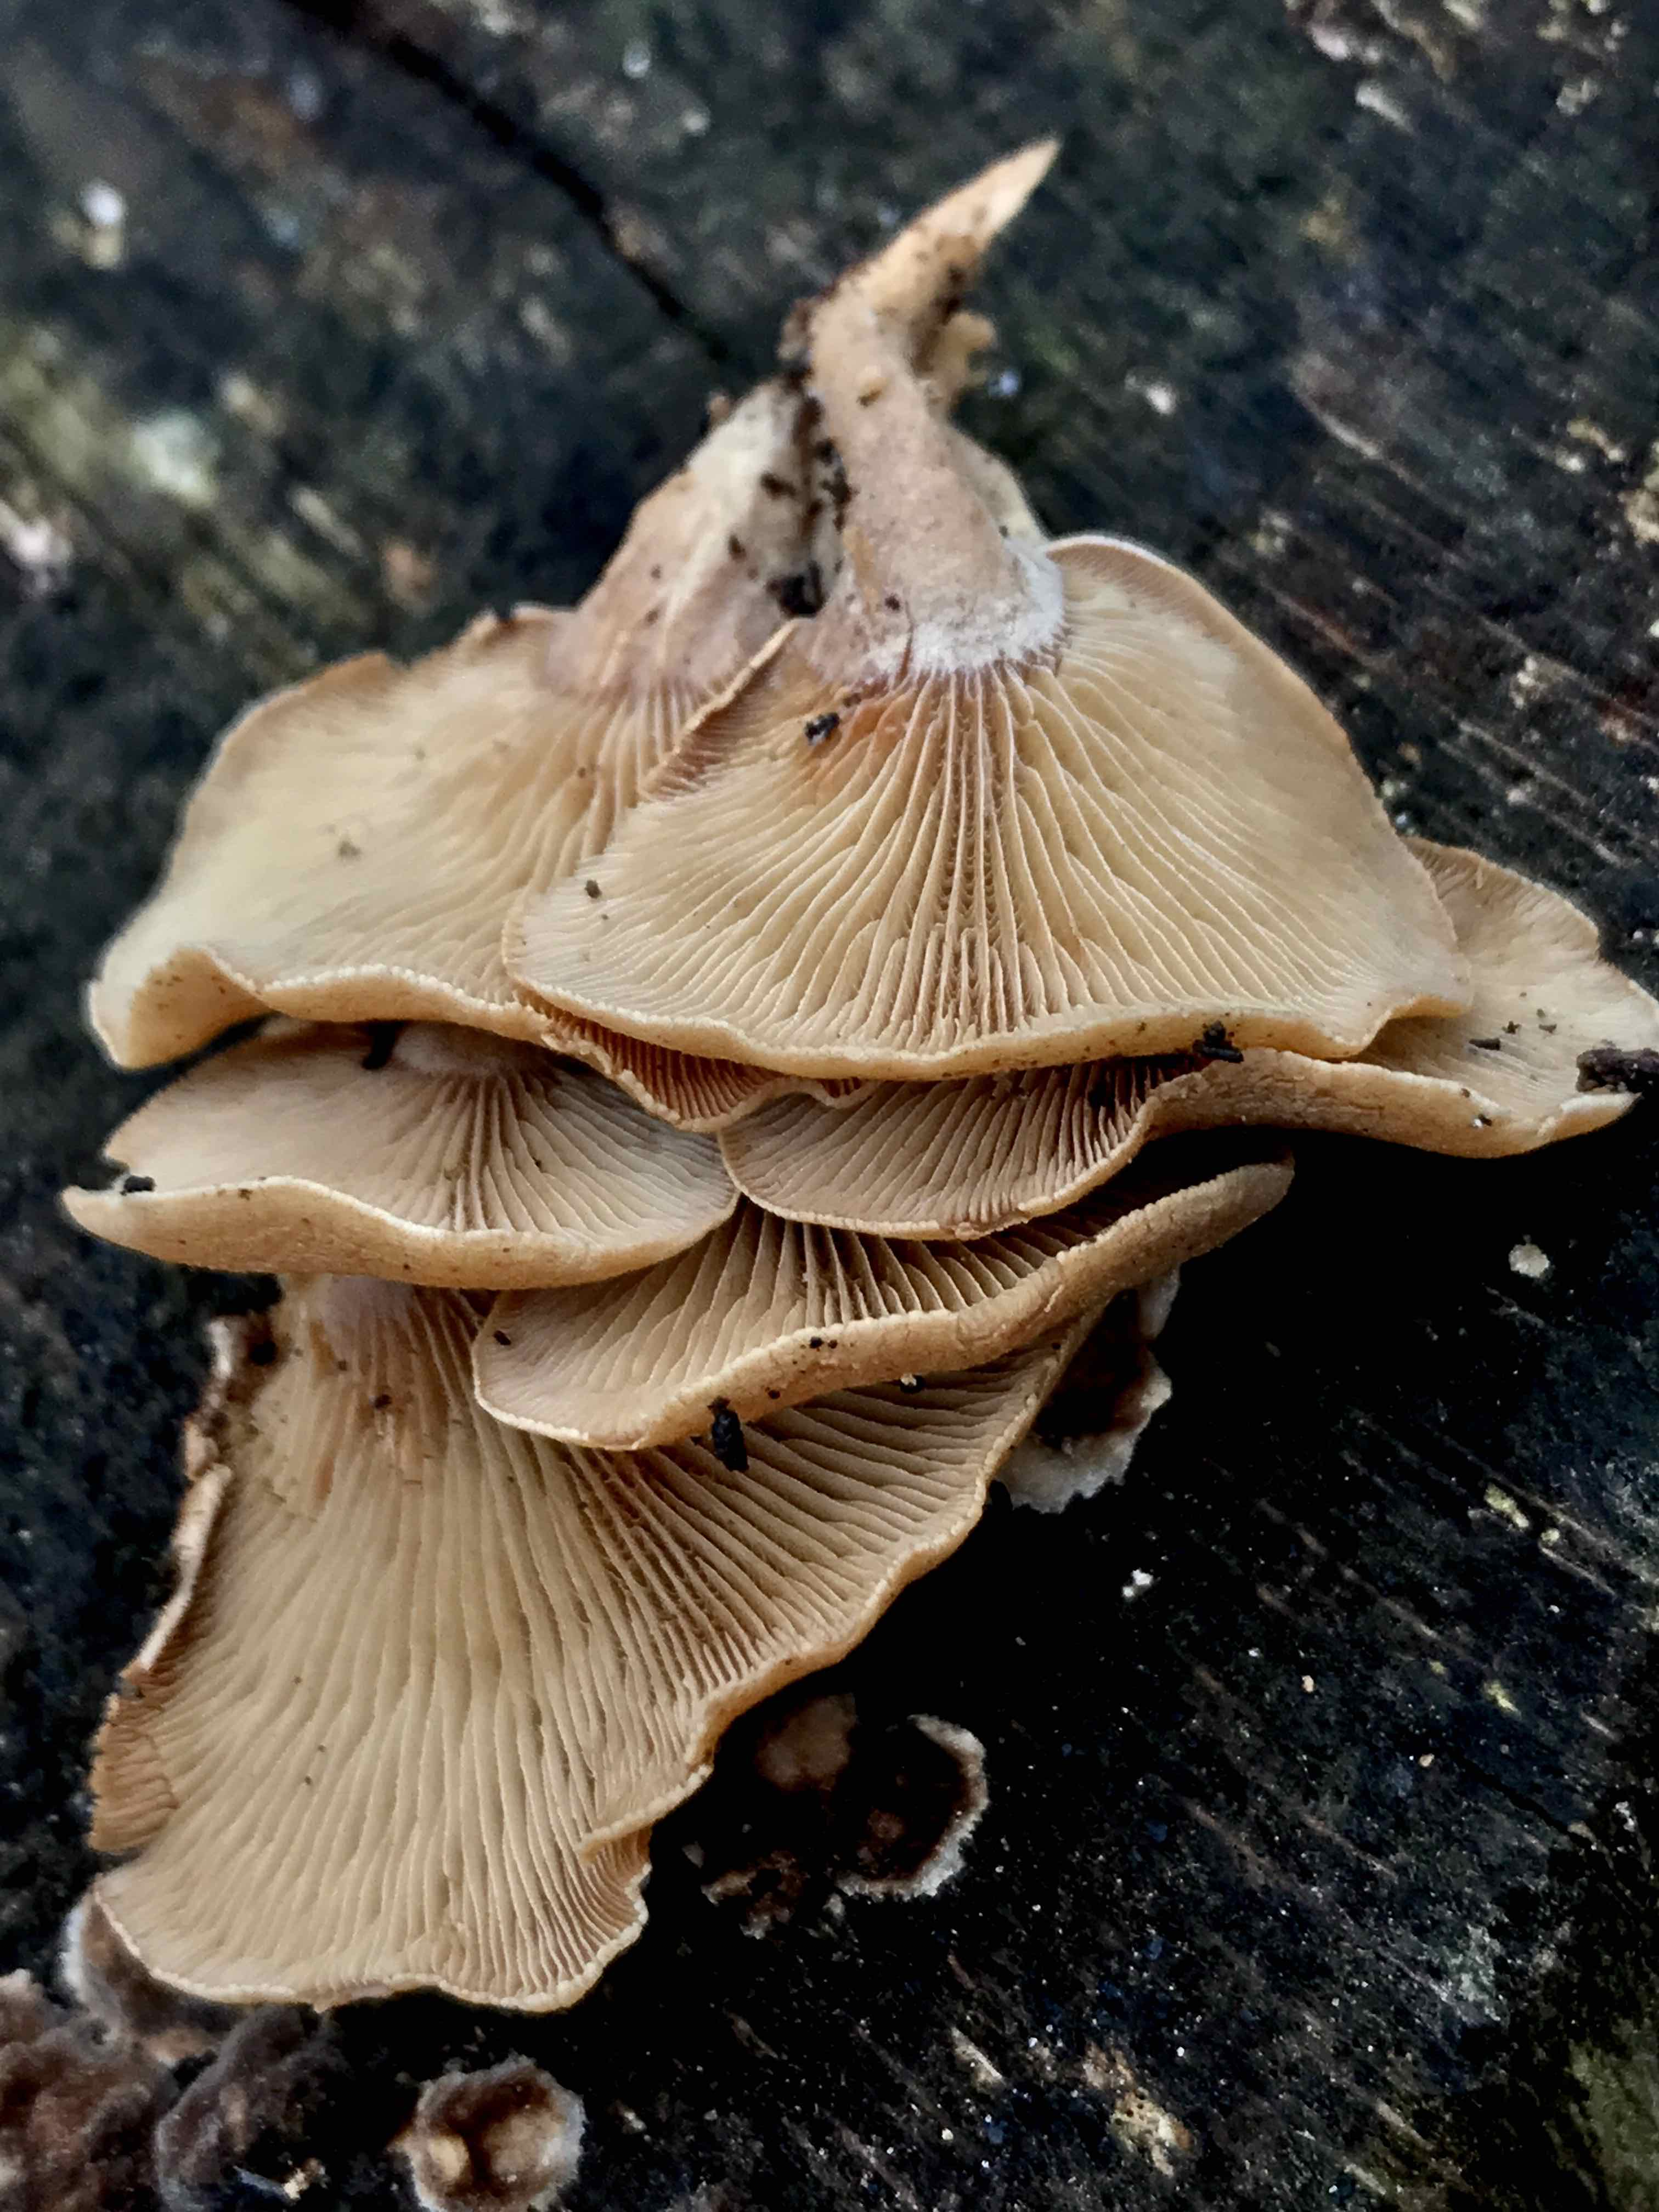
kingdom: Fungi
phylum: Basidiomycota
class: Agaricomycetes
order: Agaricales
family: Mycenaceae
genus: Panellus
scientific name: Panellus stipticus
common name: kliddet epaulethat
